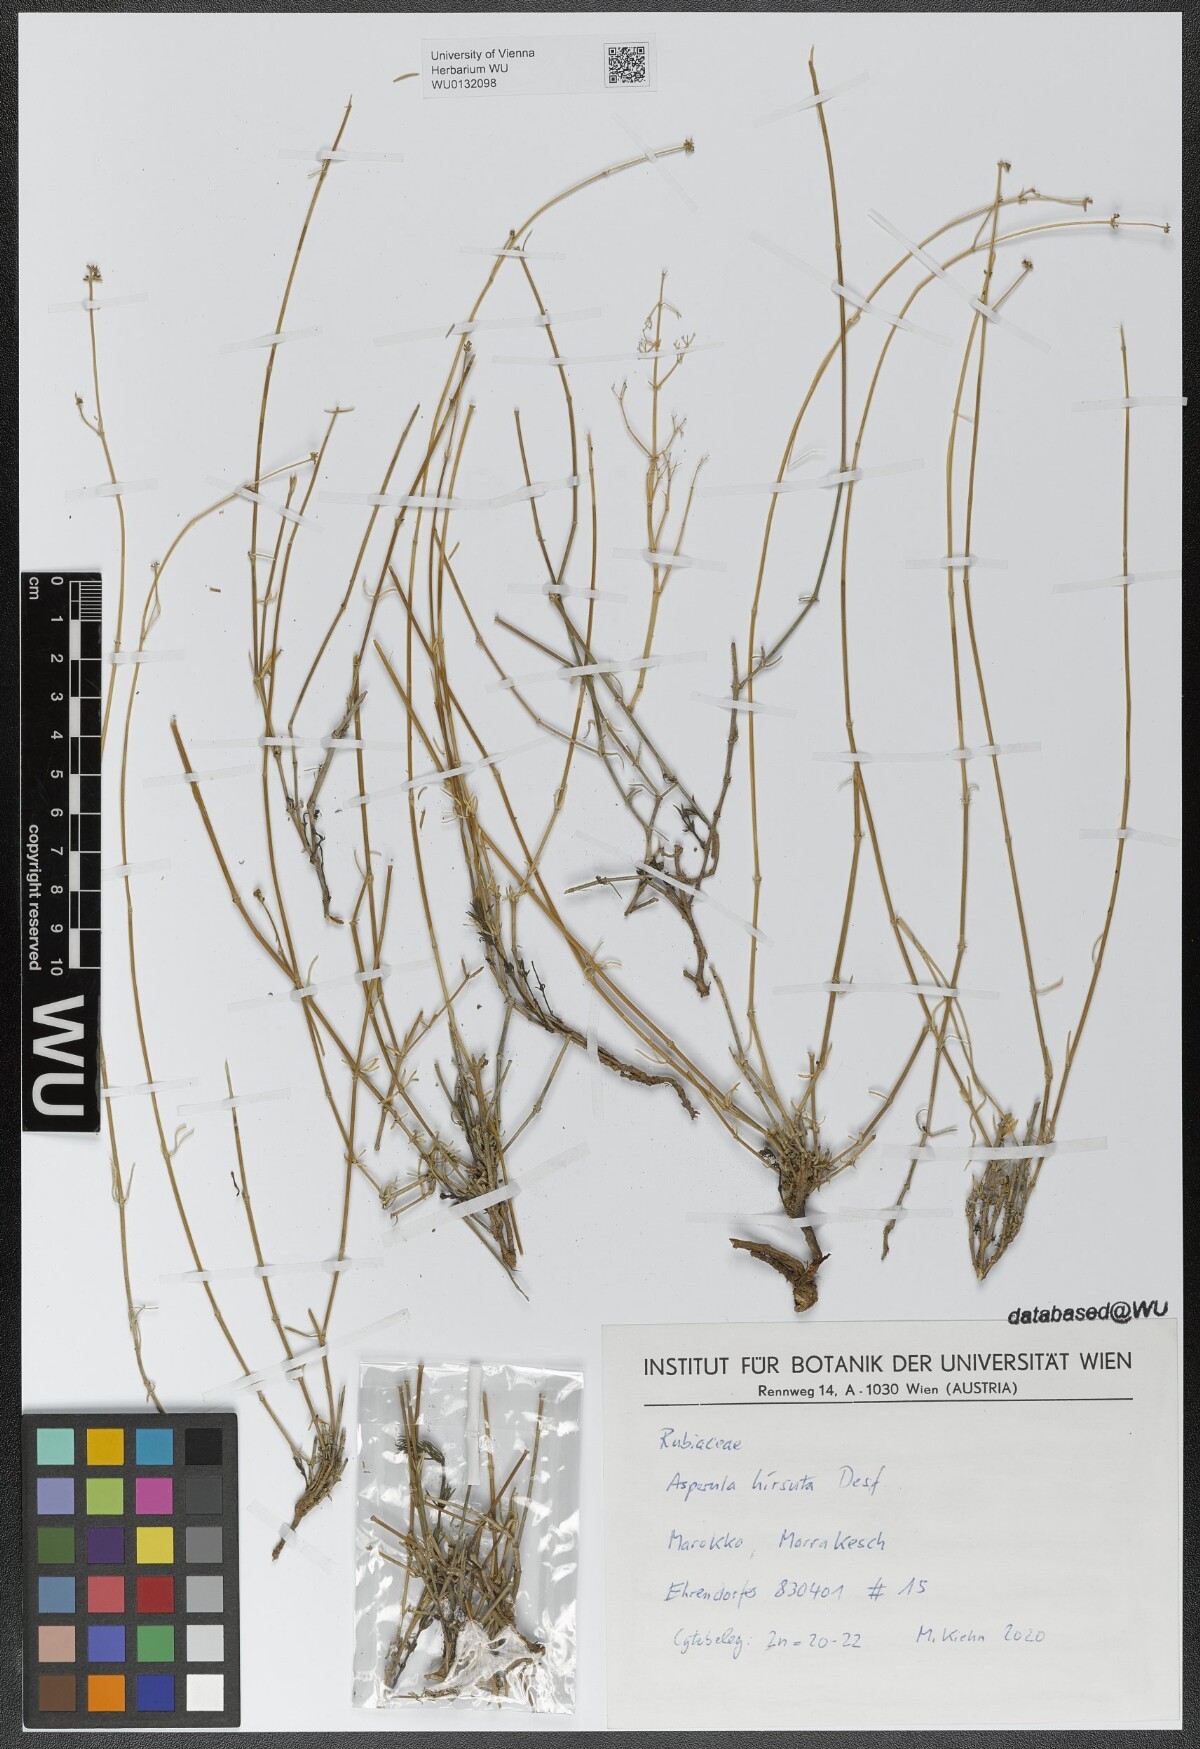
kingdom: Plantae
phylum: Tracheophyta
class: Magnoliopsida
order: Gentianales
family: Rubiaceae
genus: Hexaphylla
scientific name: Hexaphylla hirsuta
